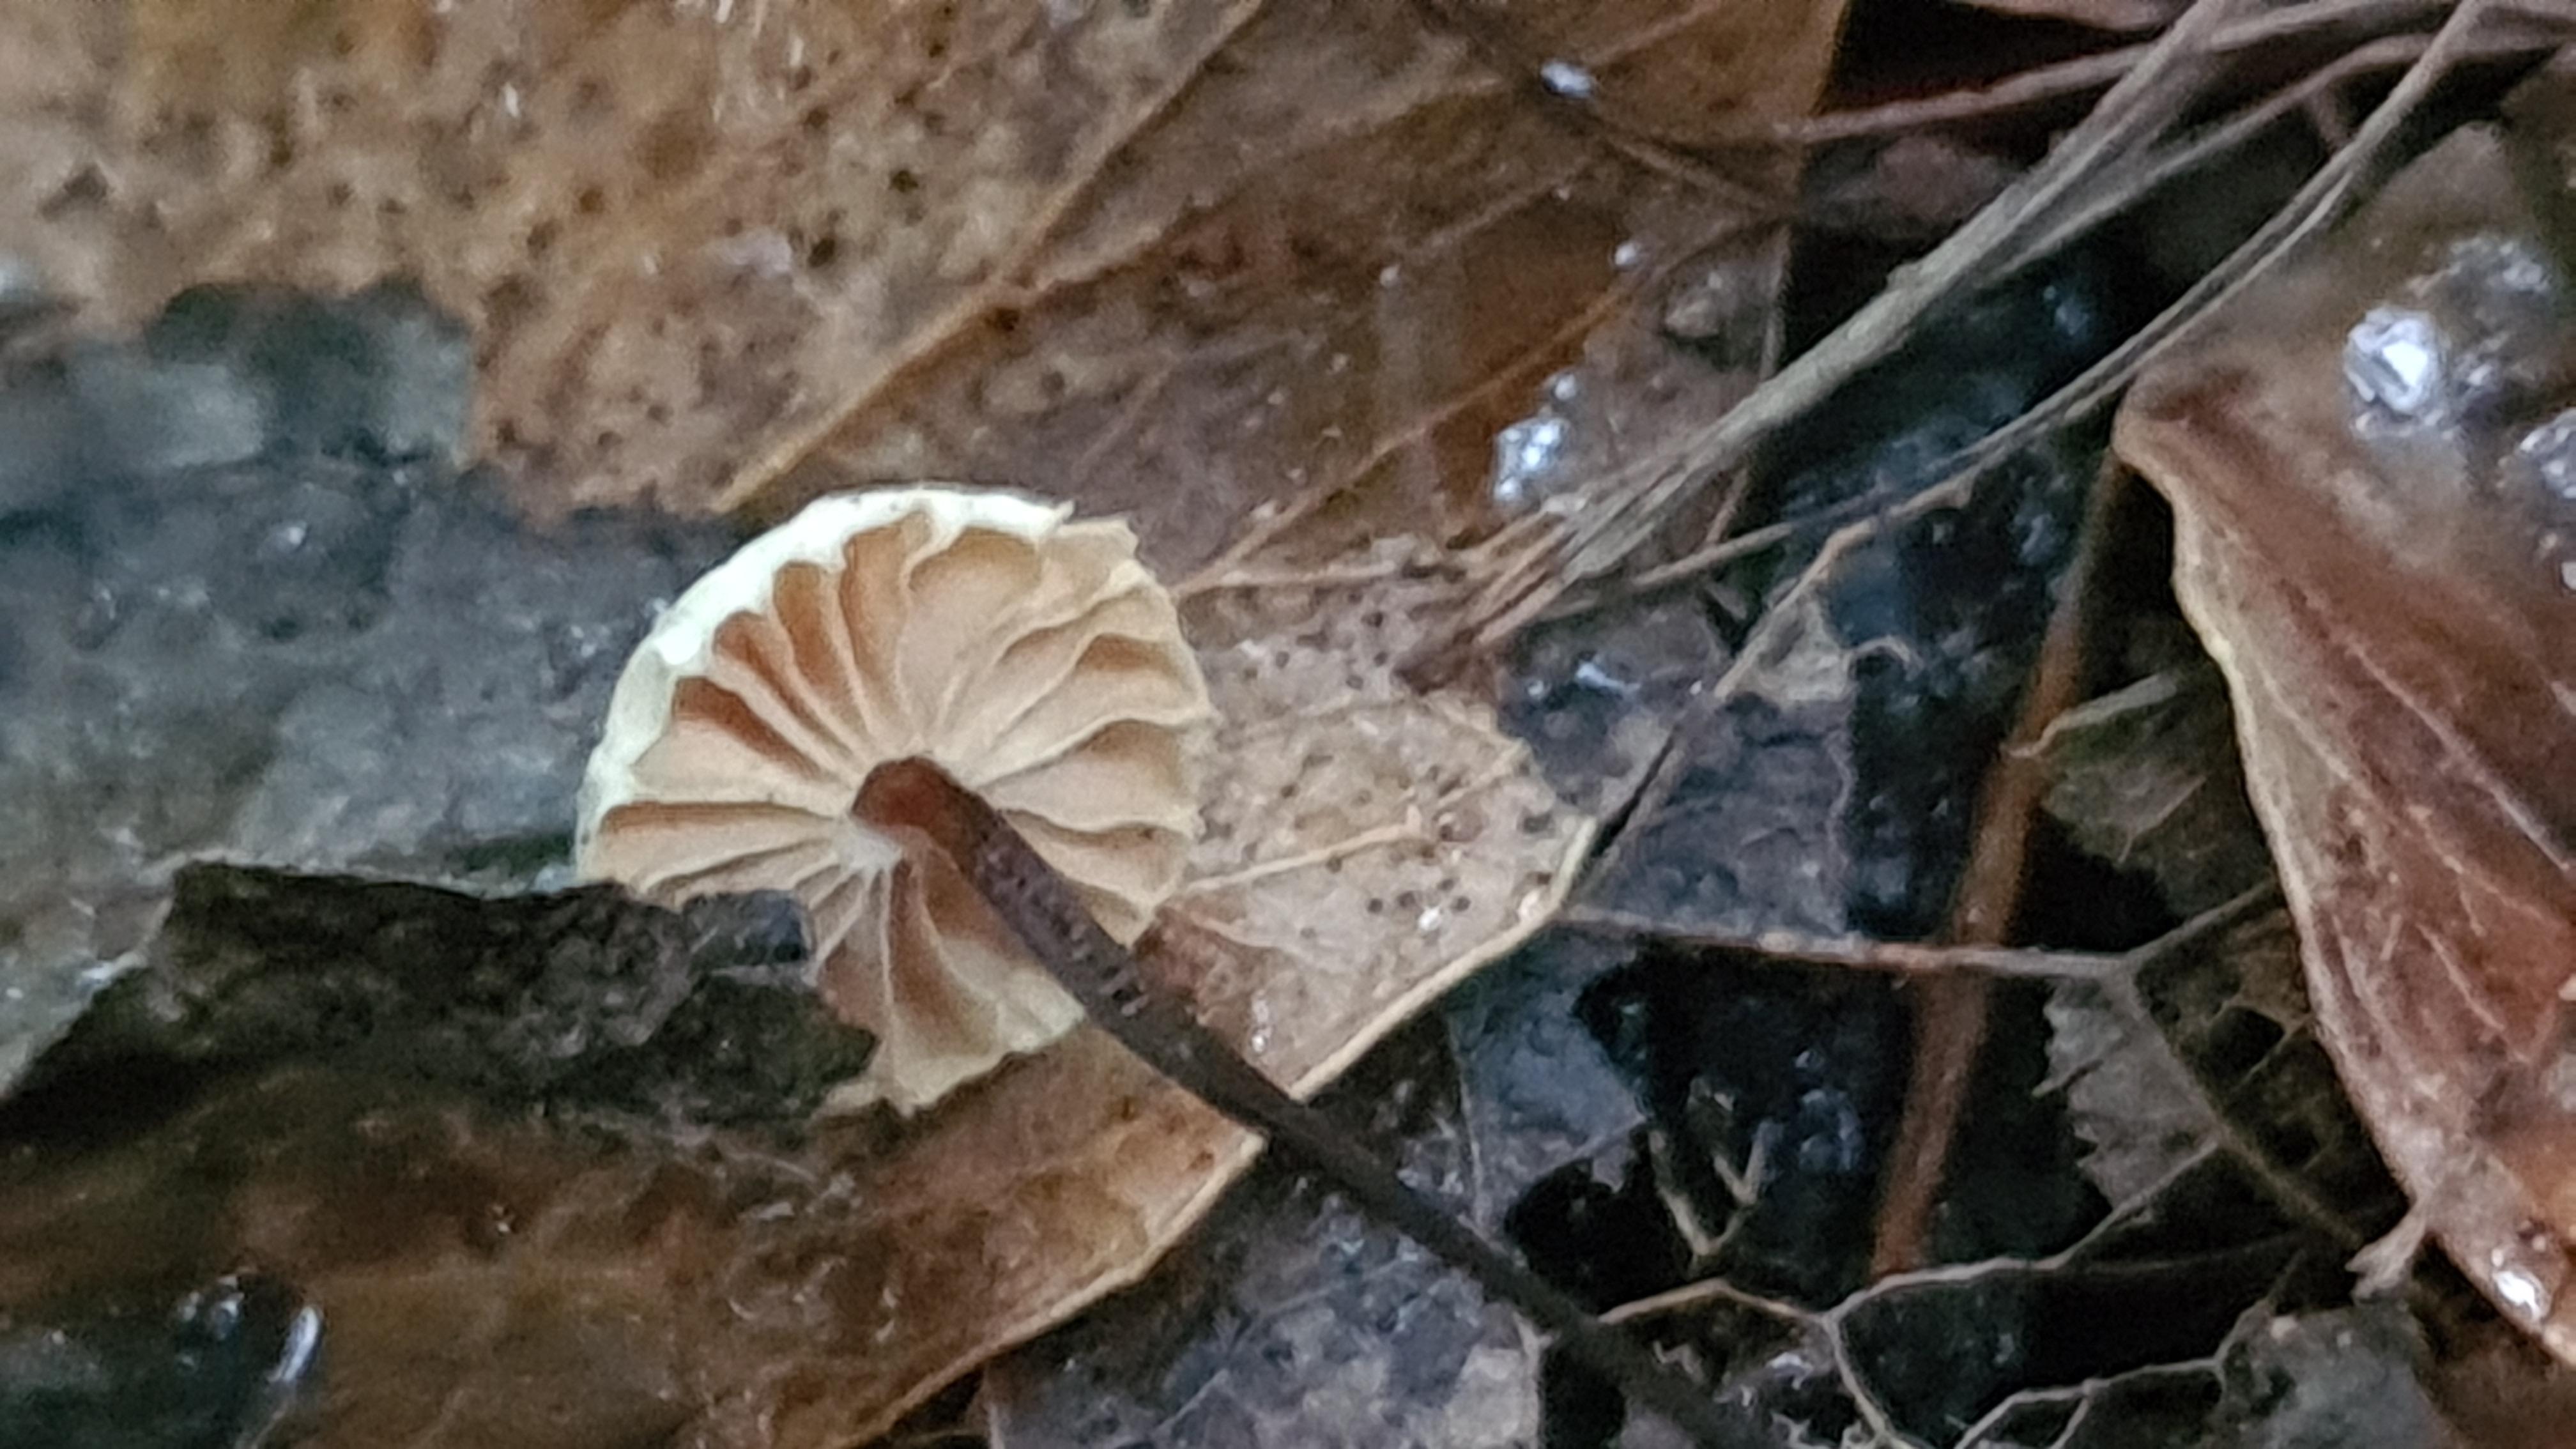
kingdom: Fungi
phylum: Basidiomycota
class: Agaricomycetes
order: Agaricales
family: Marasmiaceae
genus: Marasmius
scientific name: Marasmius rotula
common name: hjul-bruskhat
